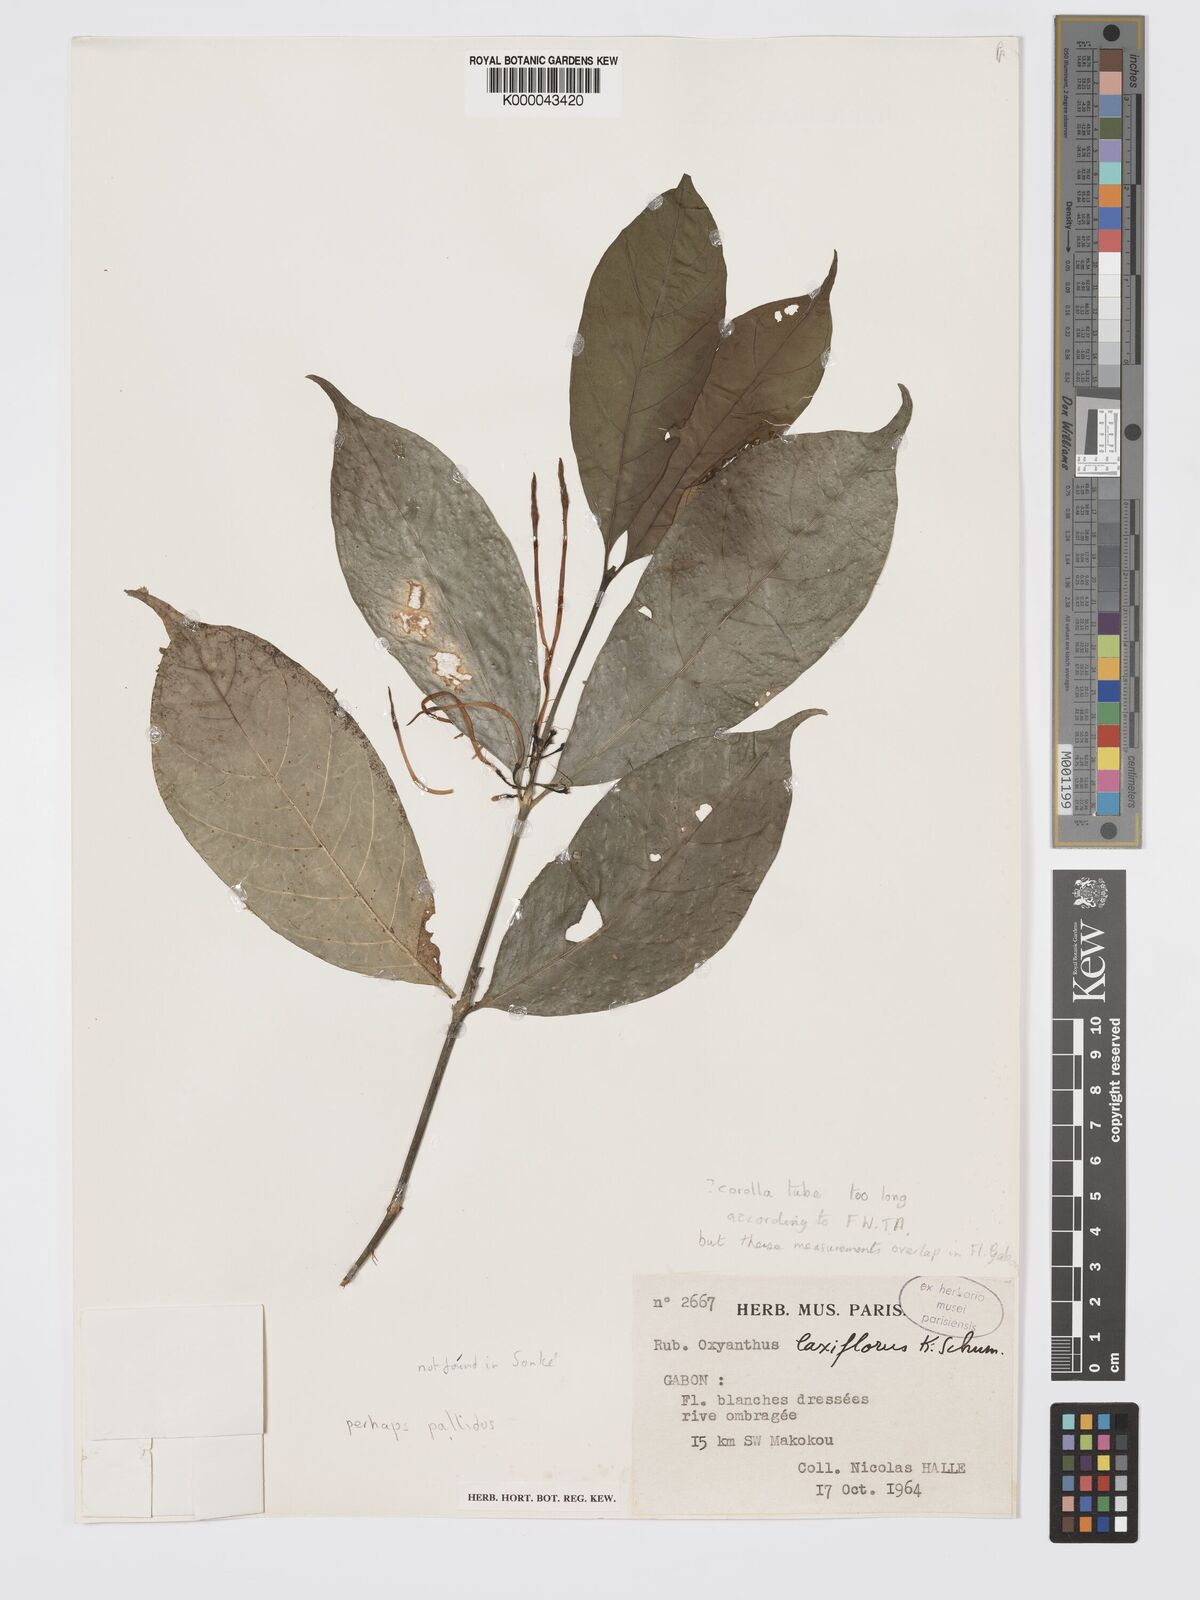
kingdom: Plantae
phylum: Tracheophyta
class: Magnoliopsida
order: Gentianales
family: Rubiaceae
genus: Oxyanthus
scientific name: Oxyanthus pallidus
